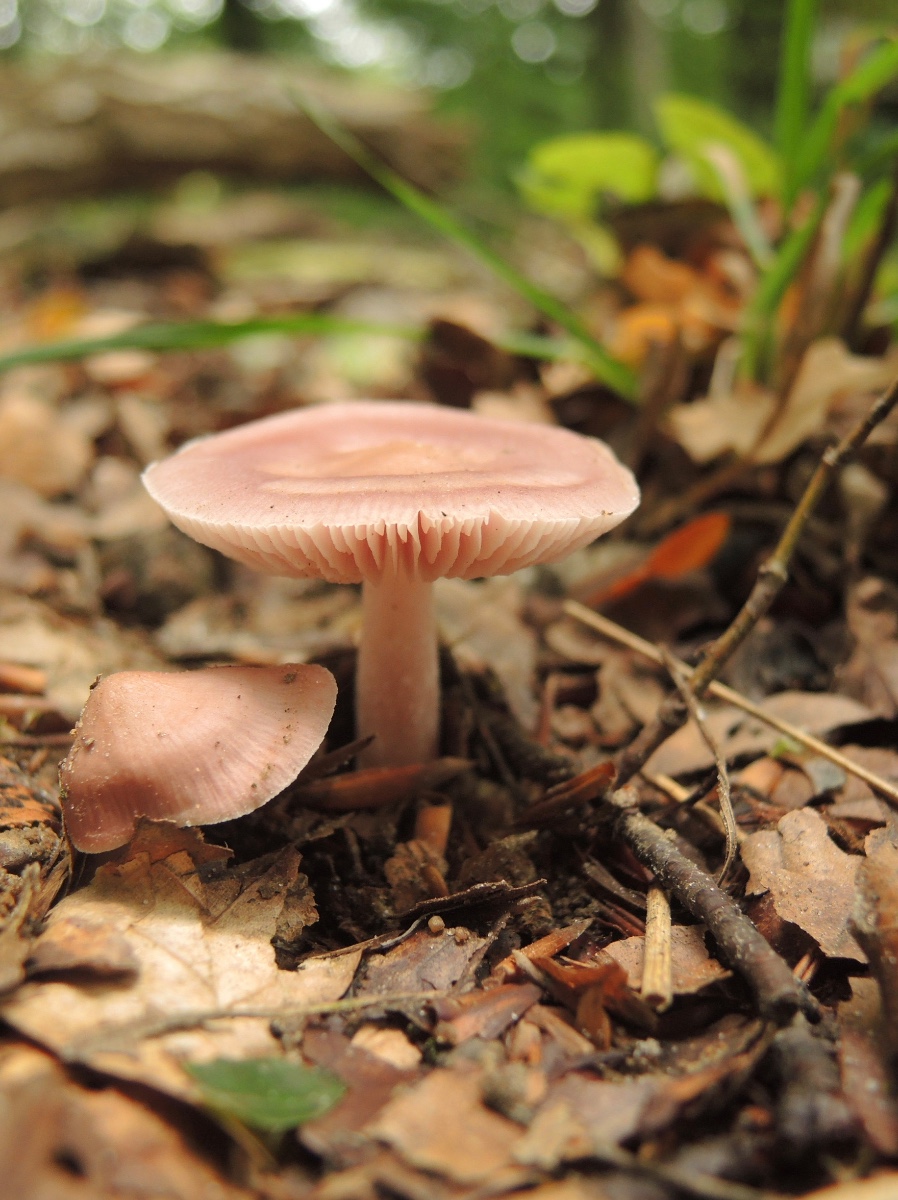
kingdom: Fungi
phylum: Basidiomycota
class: Agaricomycetes
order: Agaricales
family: Mycenaceae
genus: Mycena
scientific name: Mycena rosea
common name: rosa huesvamp
